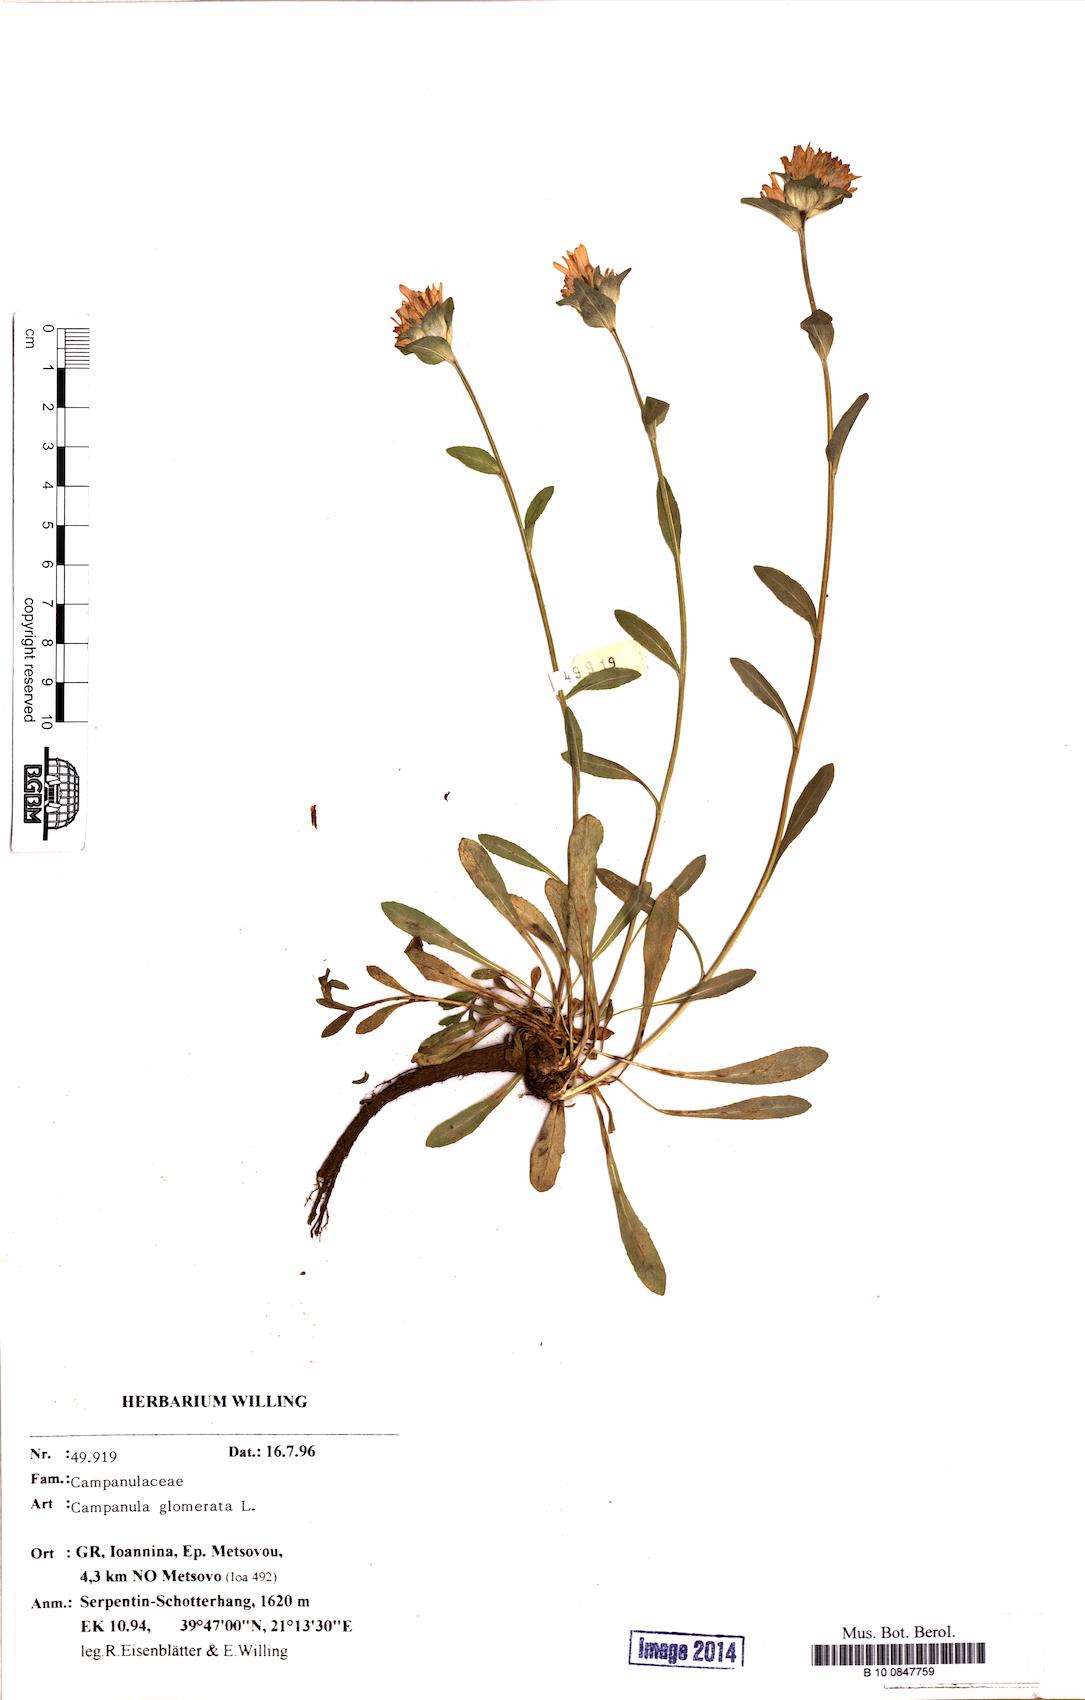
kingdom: Plantae
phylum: Tracheophyta
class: Magnoliopsida
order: Asterales
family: Campanulaceae
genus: Campanula
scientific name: Campanula glomerata
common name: Clustered bellflower
